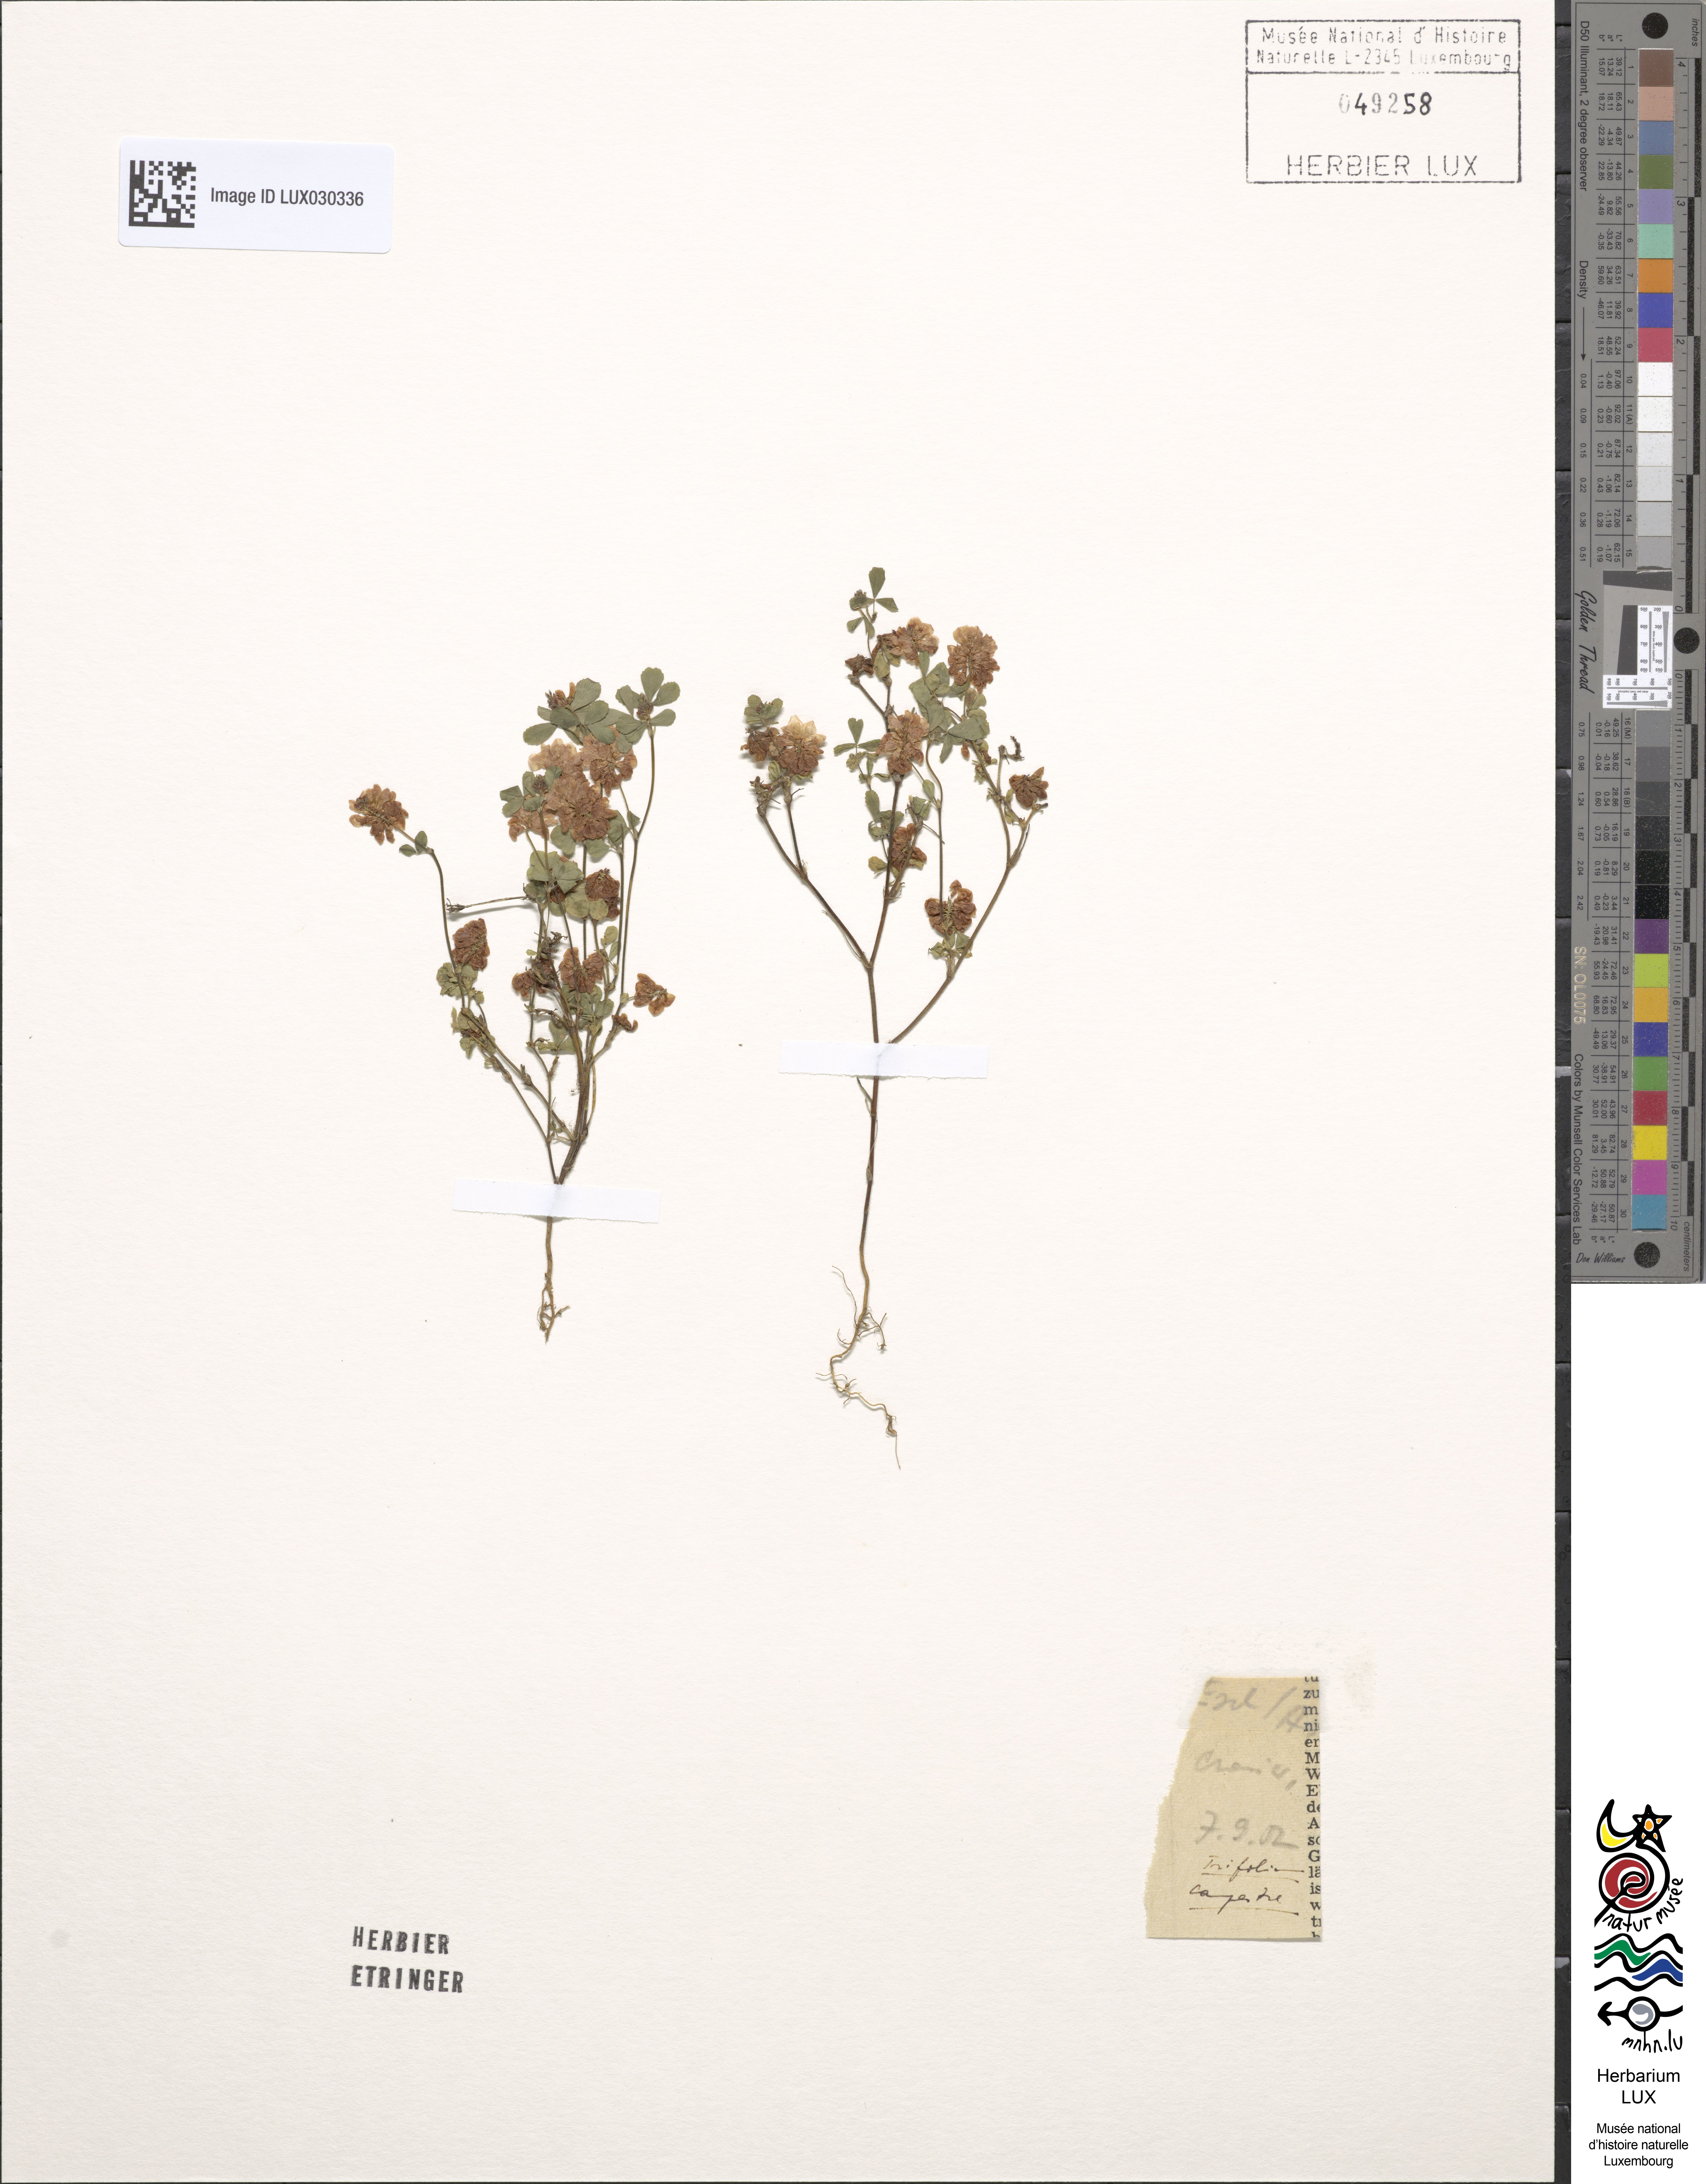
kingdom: Plantae
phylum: Tracheophyta
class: Magnoliopsida
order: Fabales
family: Fabaceae
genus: Trifolium
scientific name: Trifolium campestre
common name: Field clover
